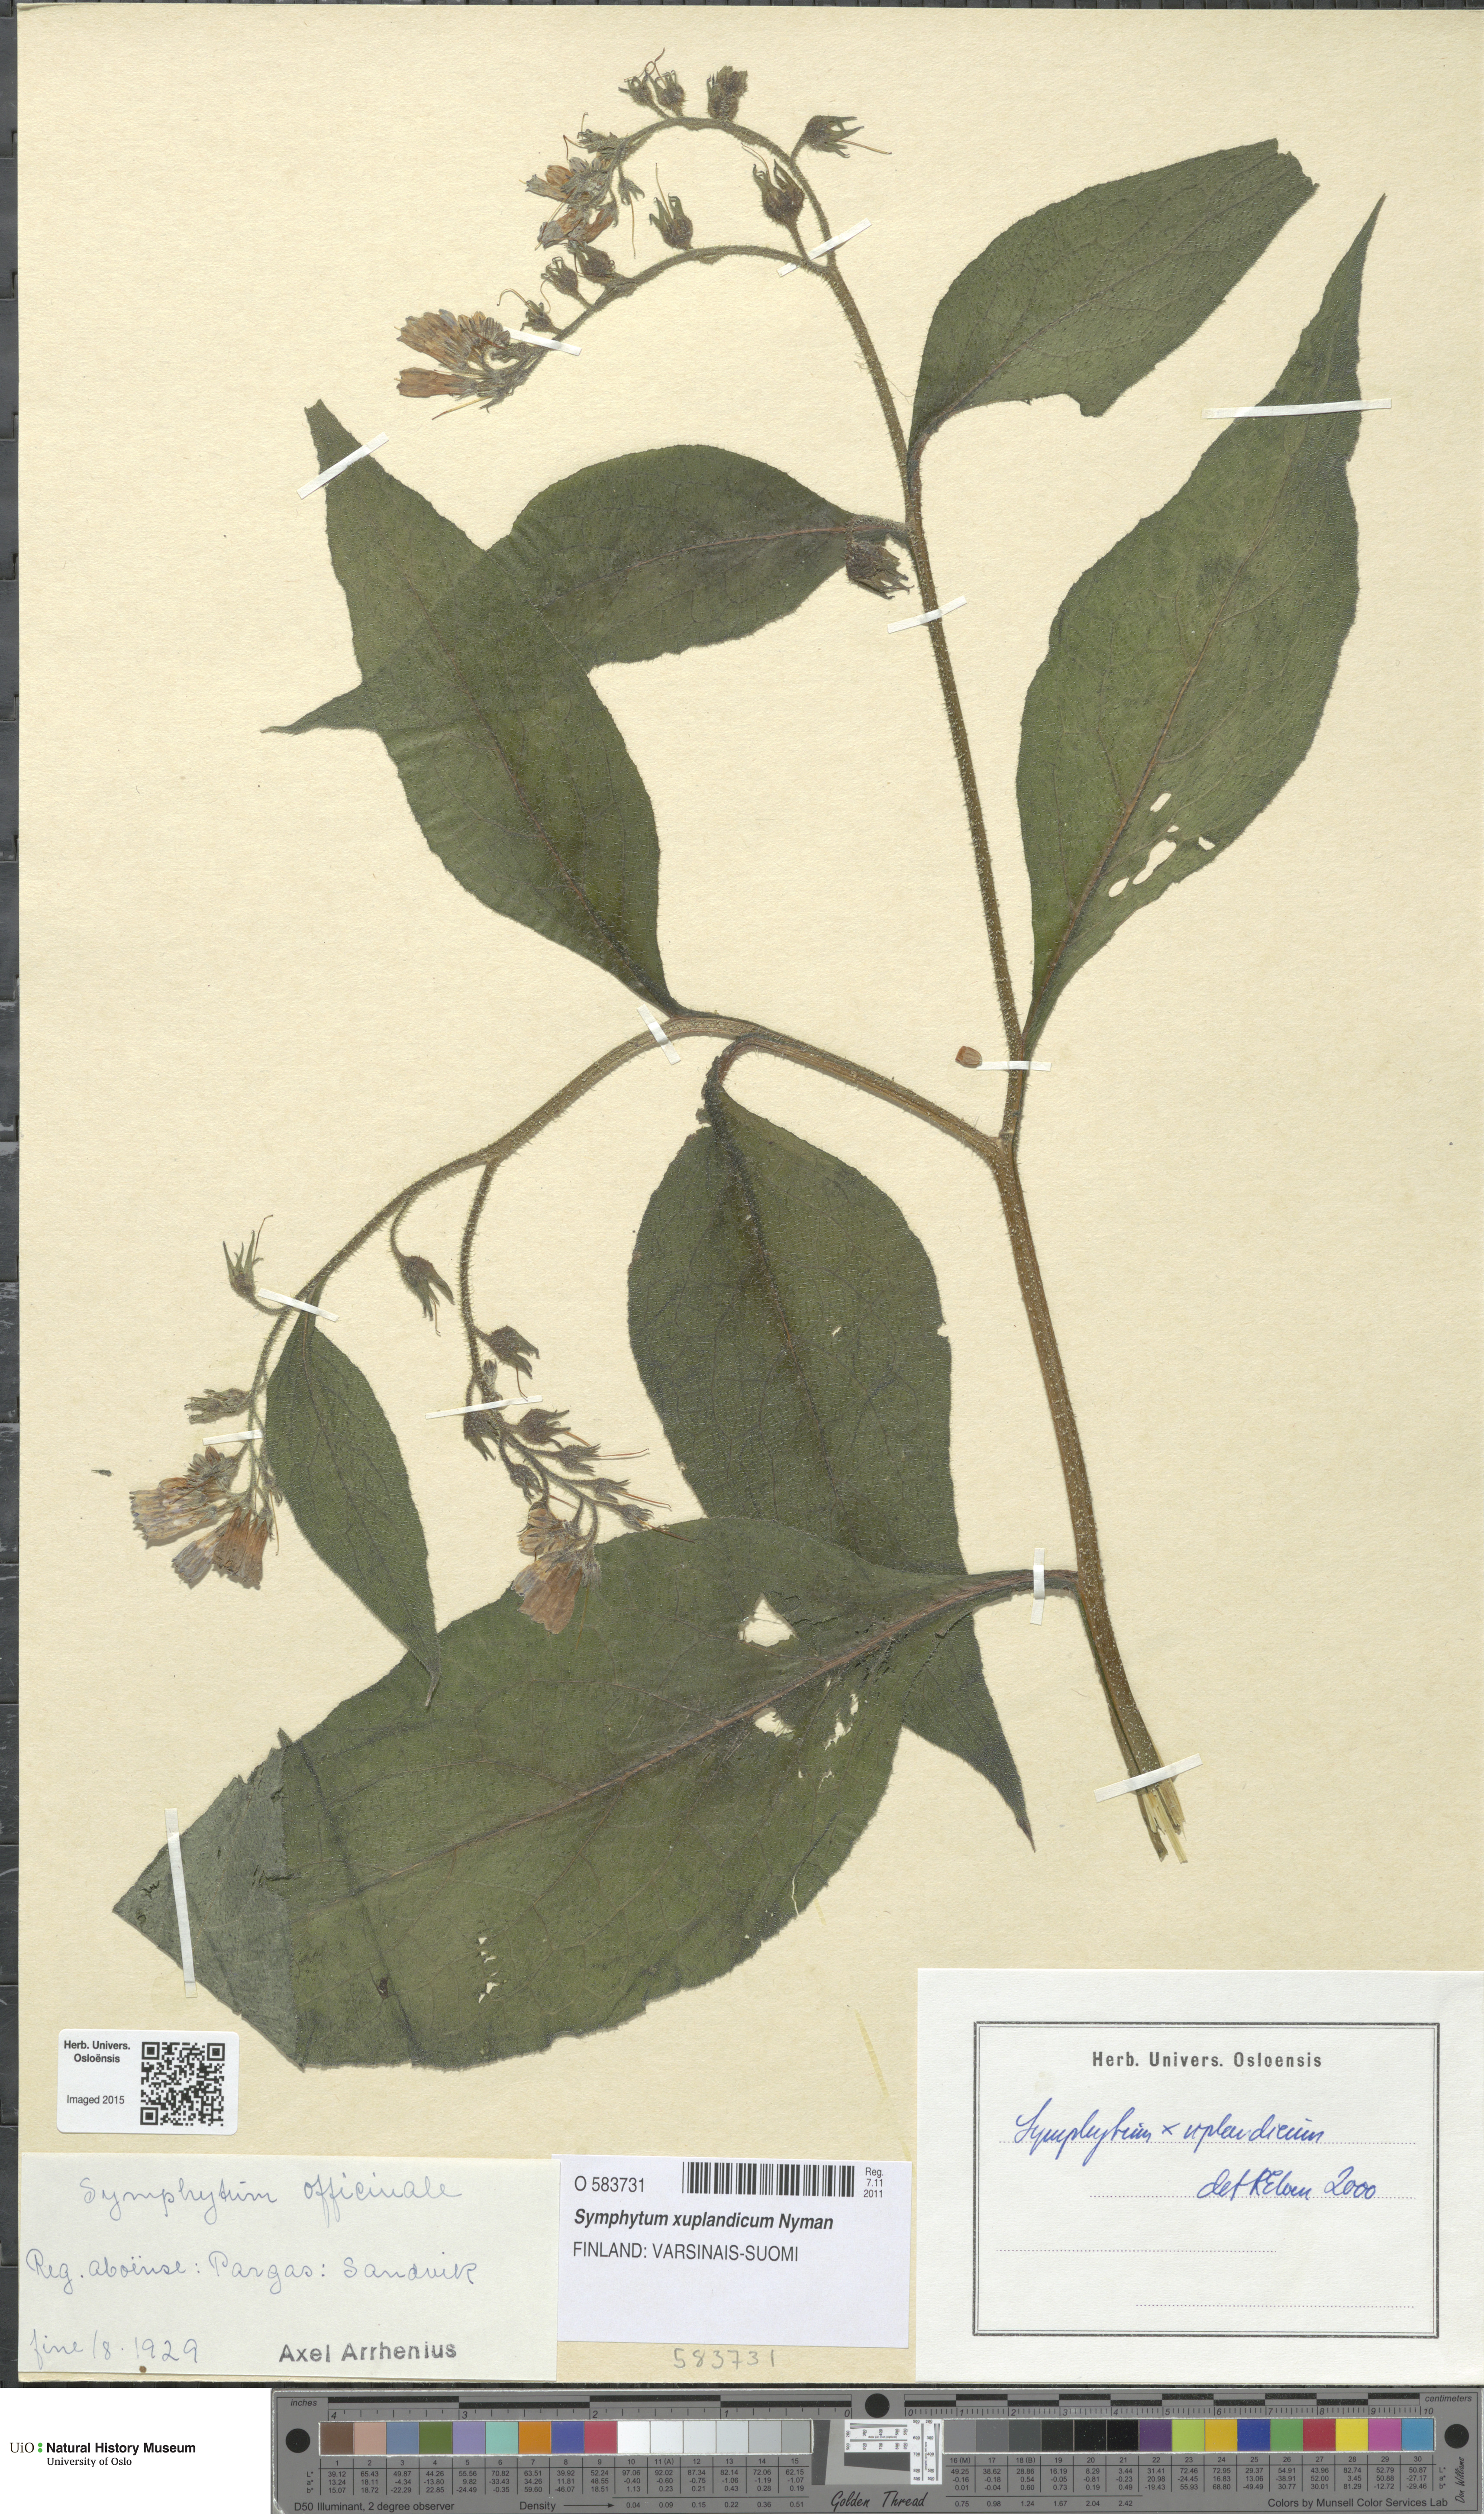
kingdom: Plantae
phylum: Tracheophyta
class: Magnoliopsida
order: Boraginales
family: Boraginaceae
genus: Symphytum
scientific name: Symphytum uplandicum
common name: Russian comfrey
